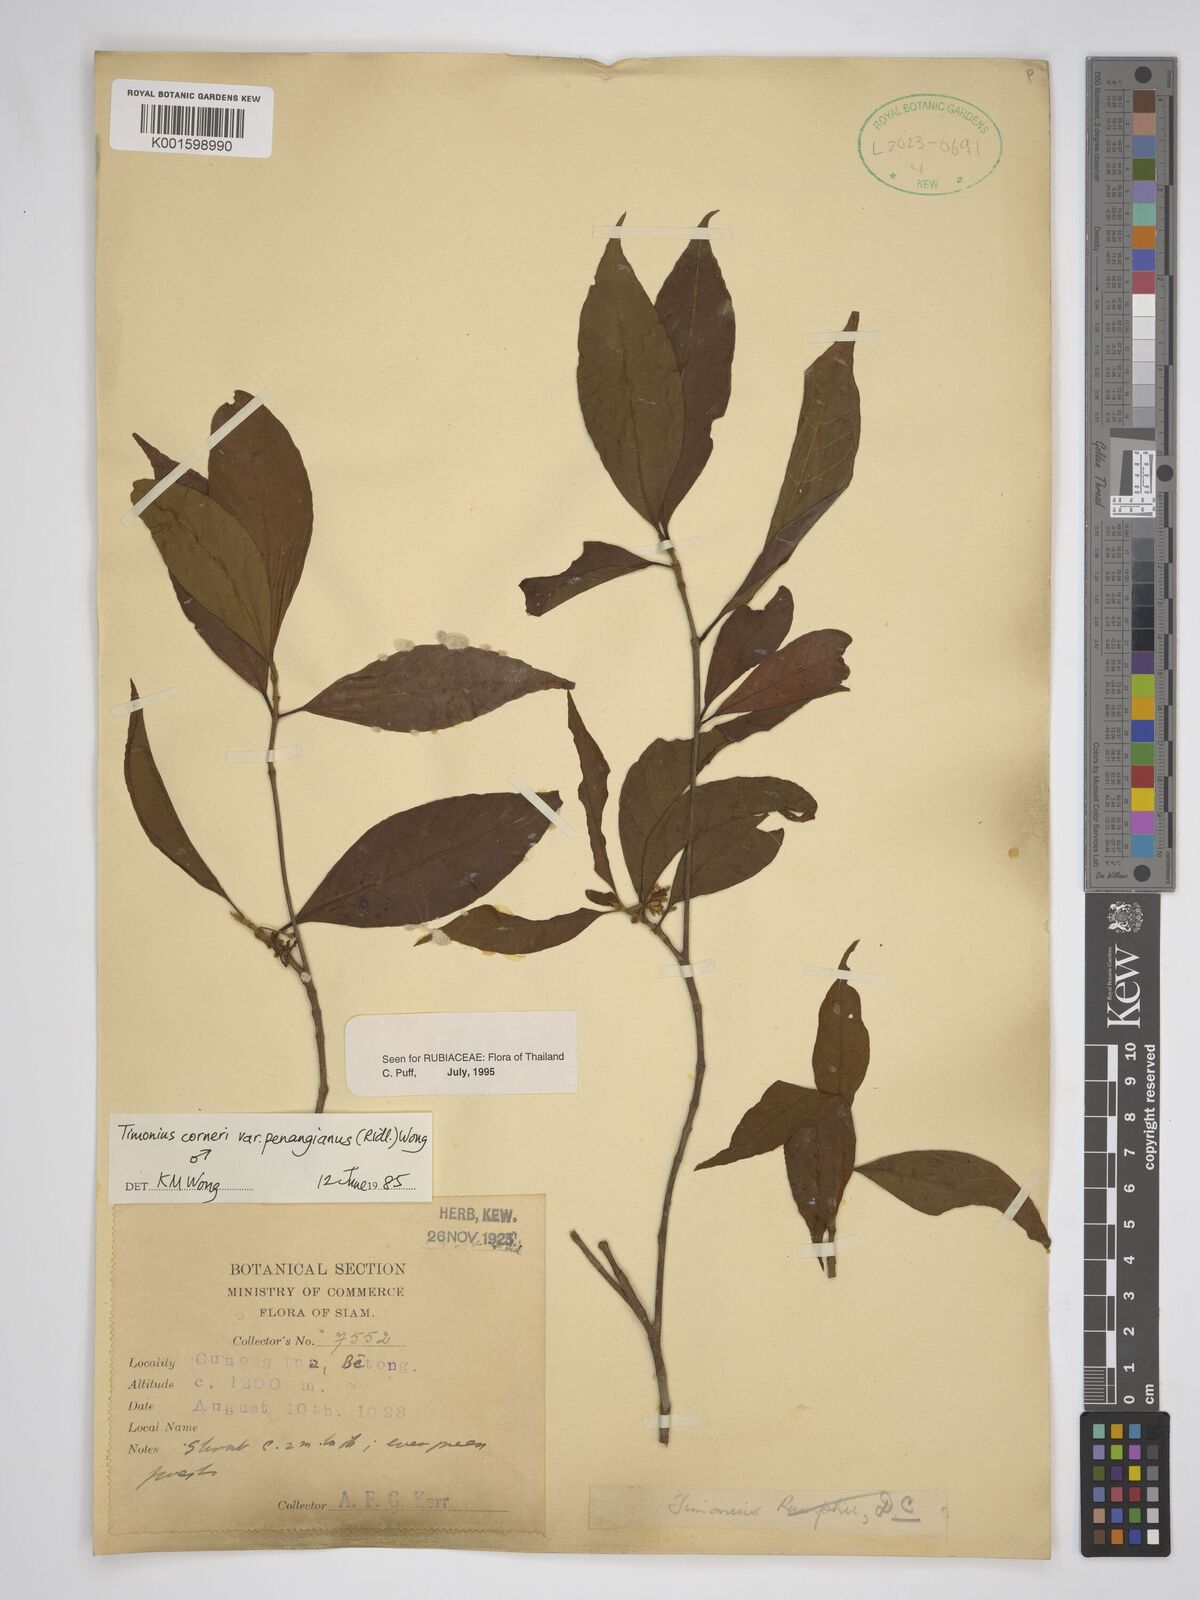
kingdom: Plantae
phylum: Tracheophyta
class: Magnoliopsida
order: Gentianales
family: Rubiaceae
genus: Timonius
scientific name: Timonius corneri
